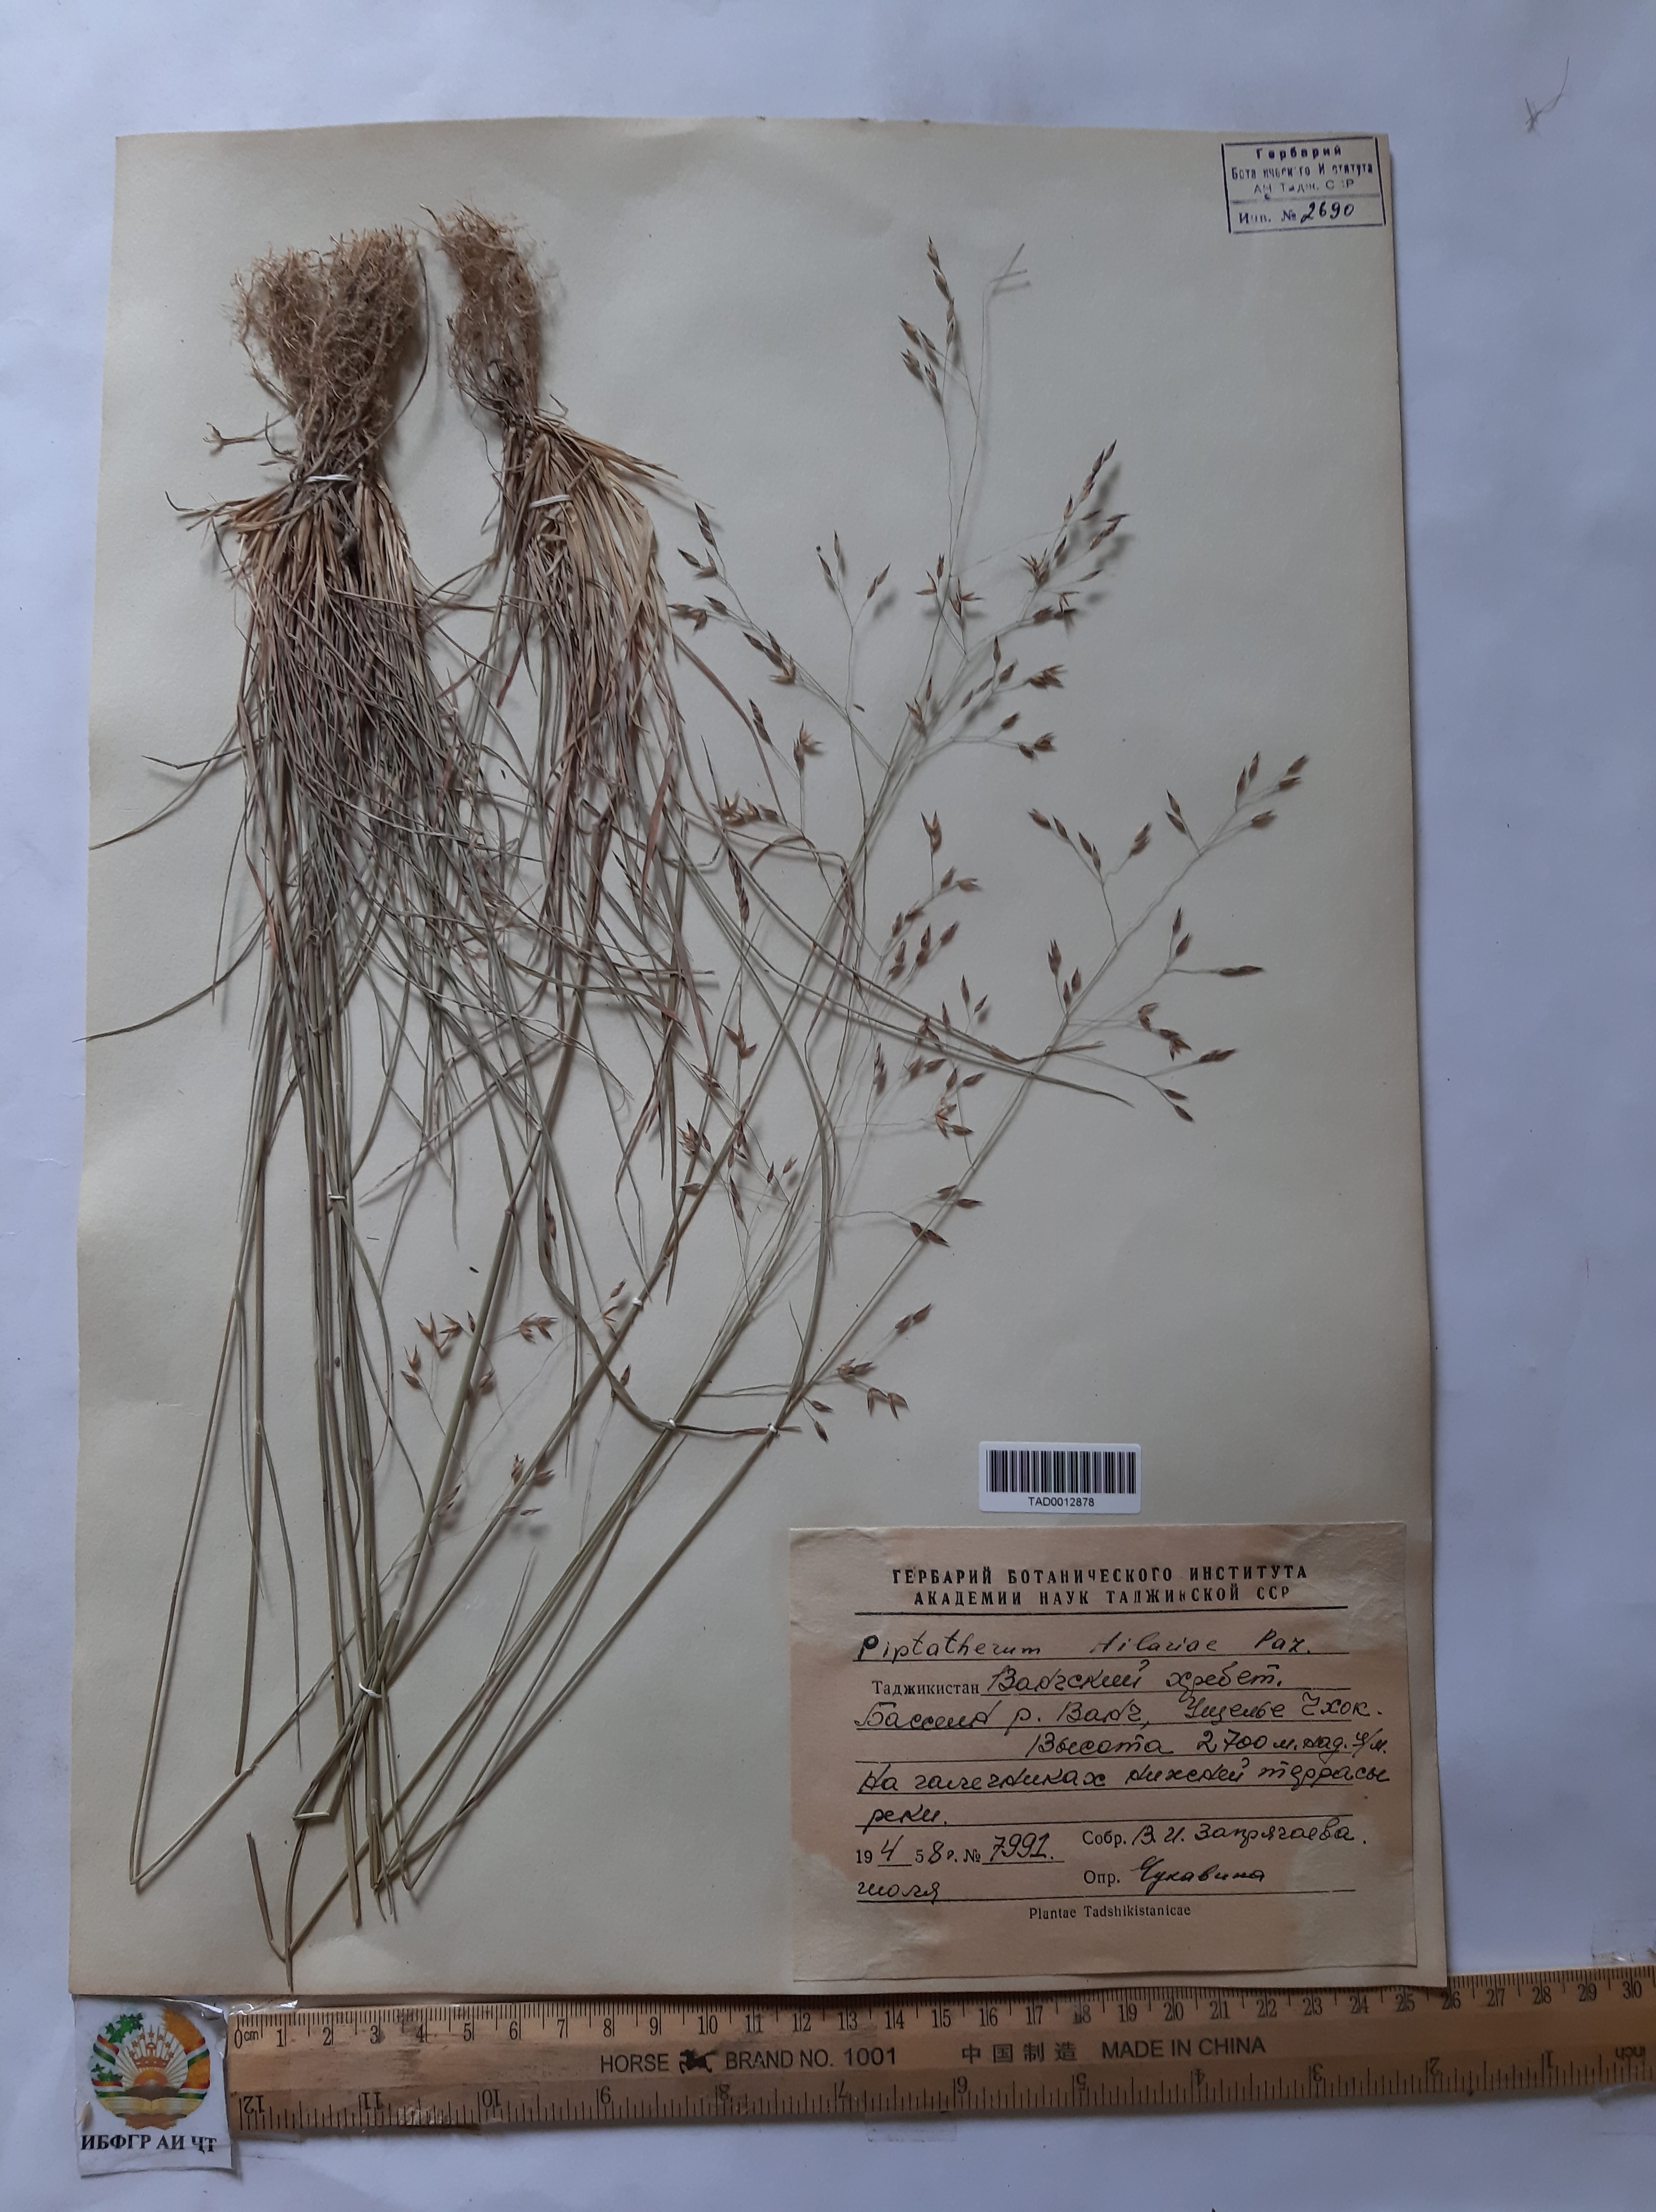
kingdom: Plantae
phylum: Tracheophyta
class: Liliopsida
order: Poales
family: Poaceae
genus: Piptatherum
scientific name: Piptatherum hilariae
